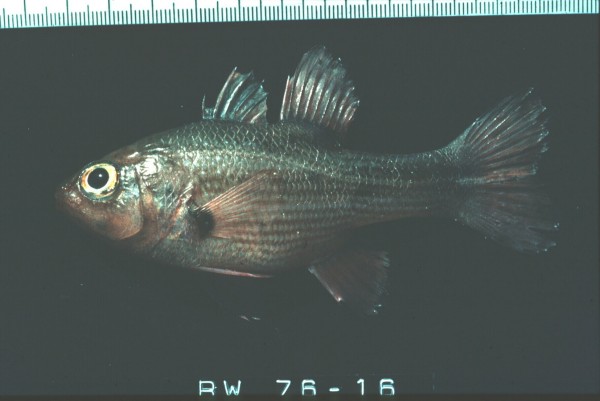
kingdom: Animalia
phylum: Chordata
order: Perciformes
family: Apogonidae
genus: Lepidamia
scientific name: Lepidamia natalensis
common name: Smallscale cardinal
